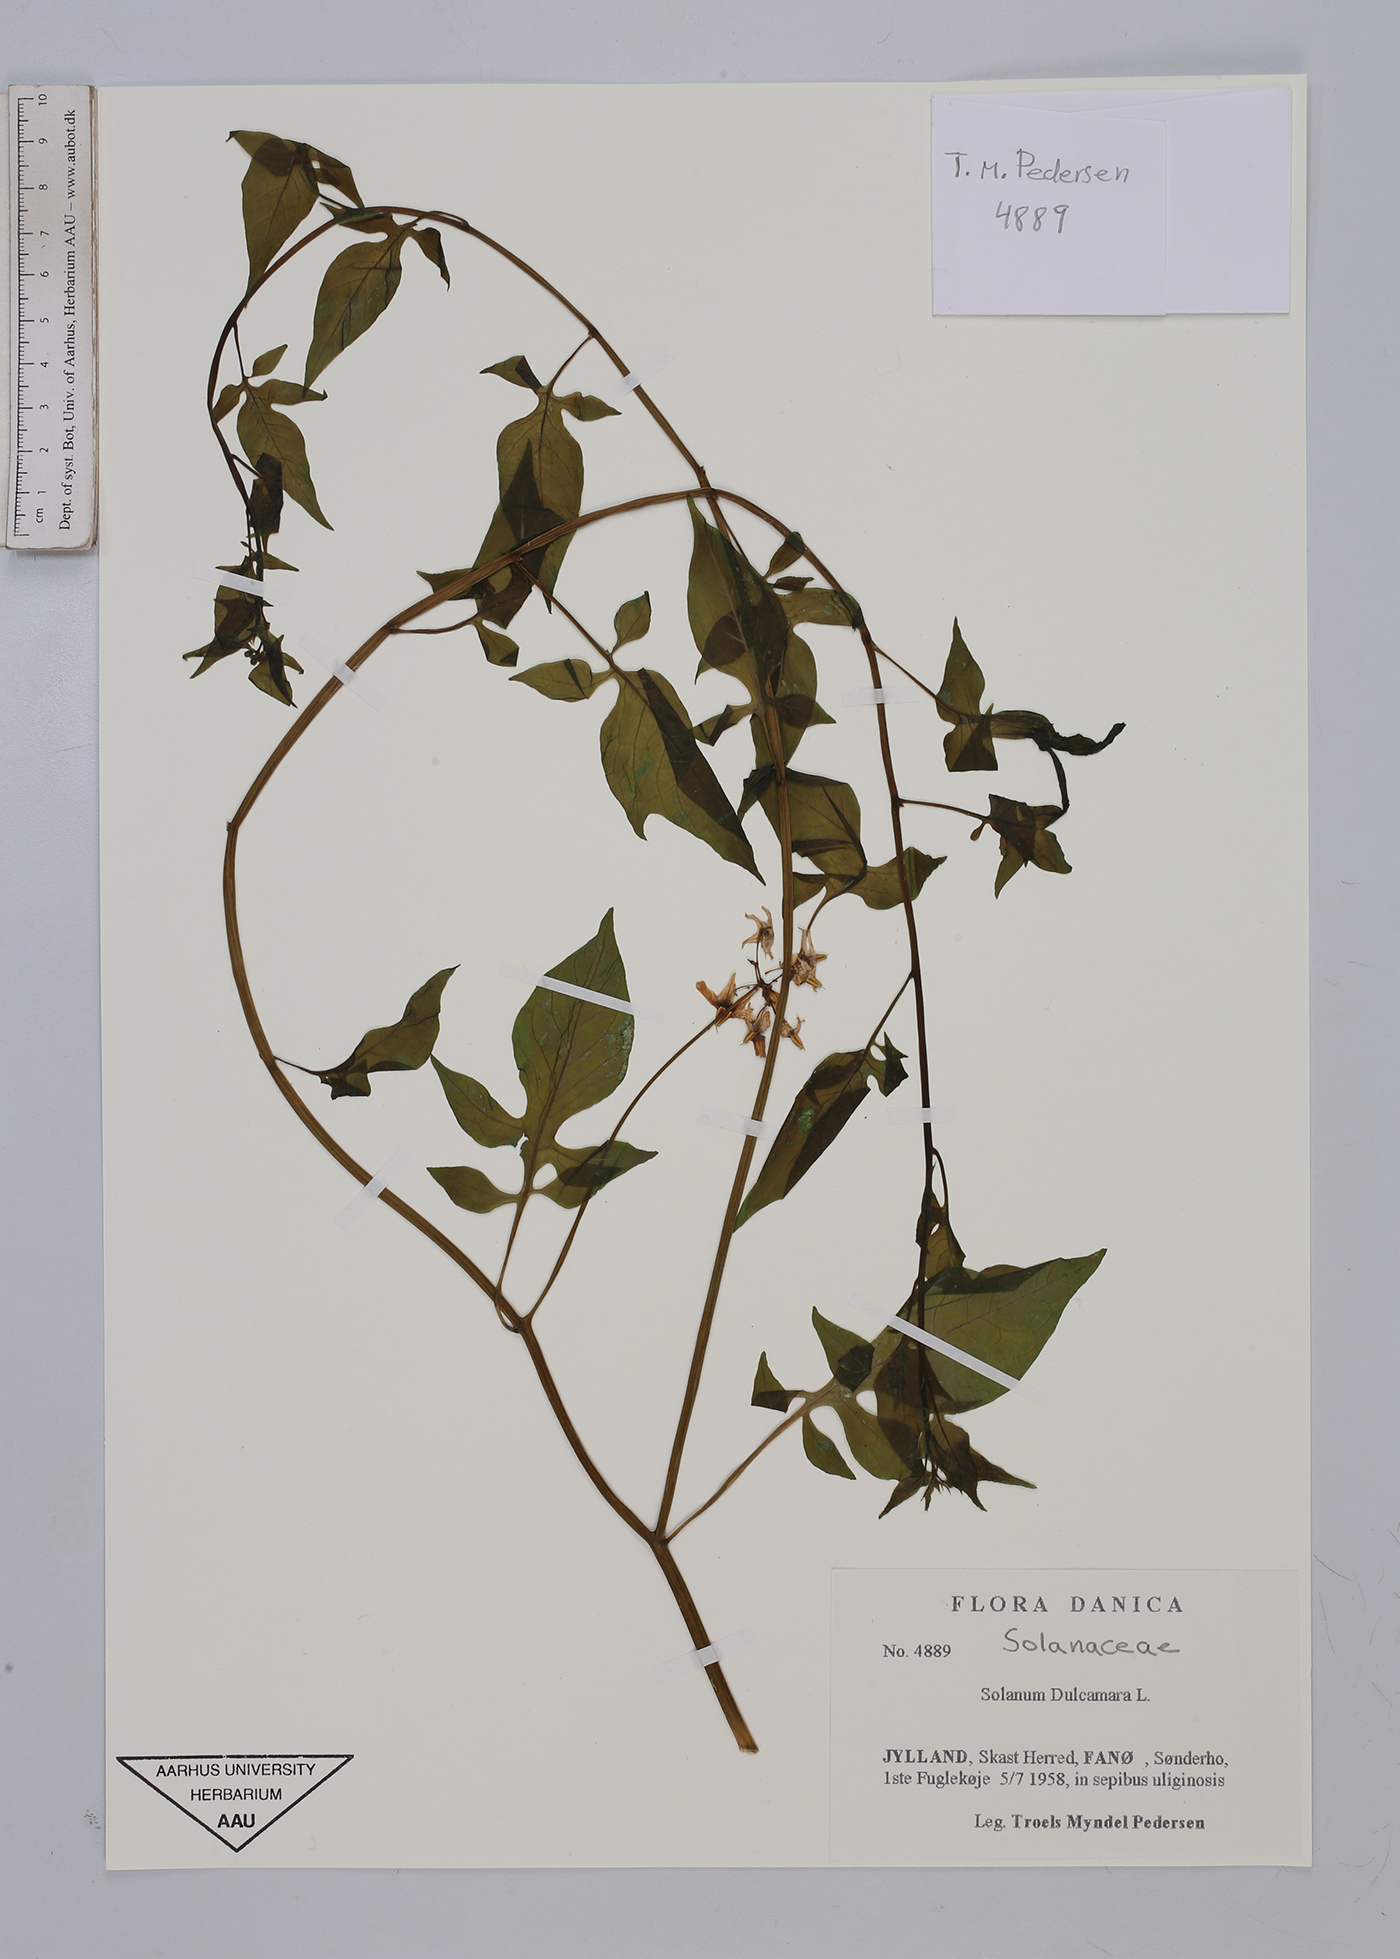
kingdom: Plantae
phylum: Tracheophyta
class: Magnoliopsida
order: Solanales
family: Solanaceae
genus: Solanum
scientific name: Solanum dulcamara
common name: Climbing nightshade
